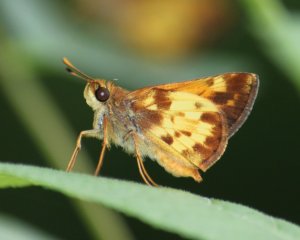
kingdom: Animalia
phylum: Arthropoda
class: Insecta
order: Lepidoptera
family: Hesperiidae
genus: Lon
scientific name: Lon zabulon
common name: Zabulon Skipper
